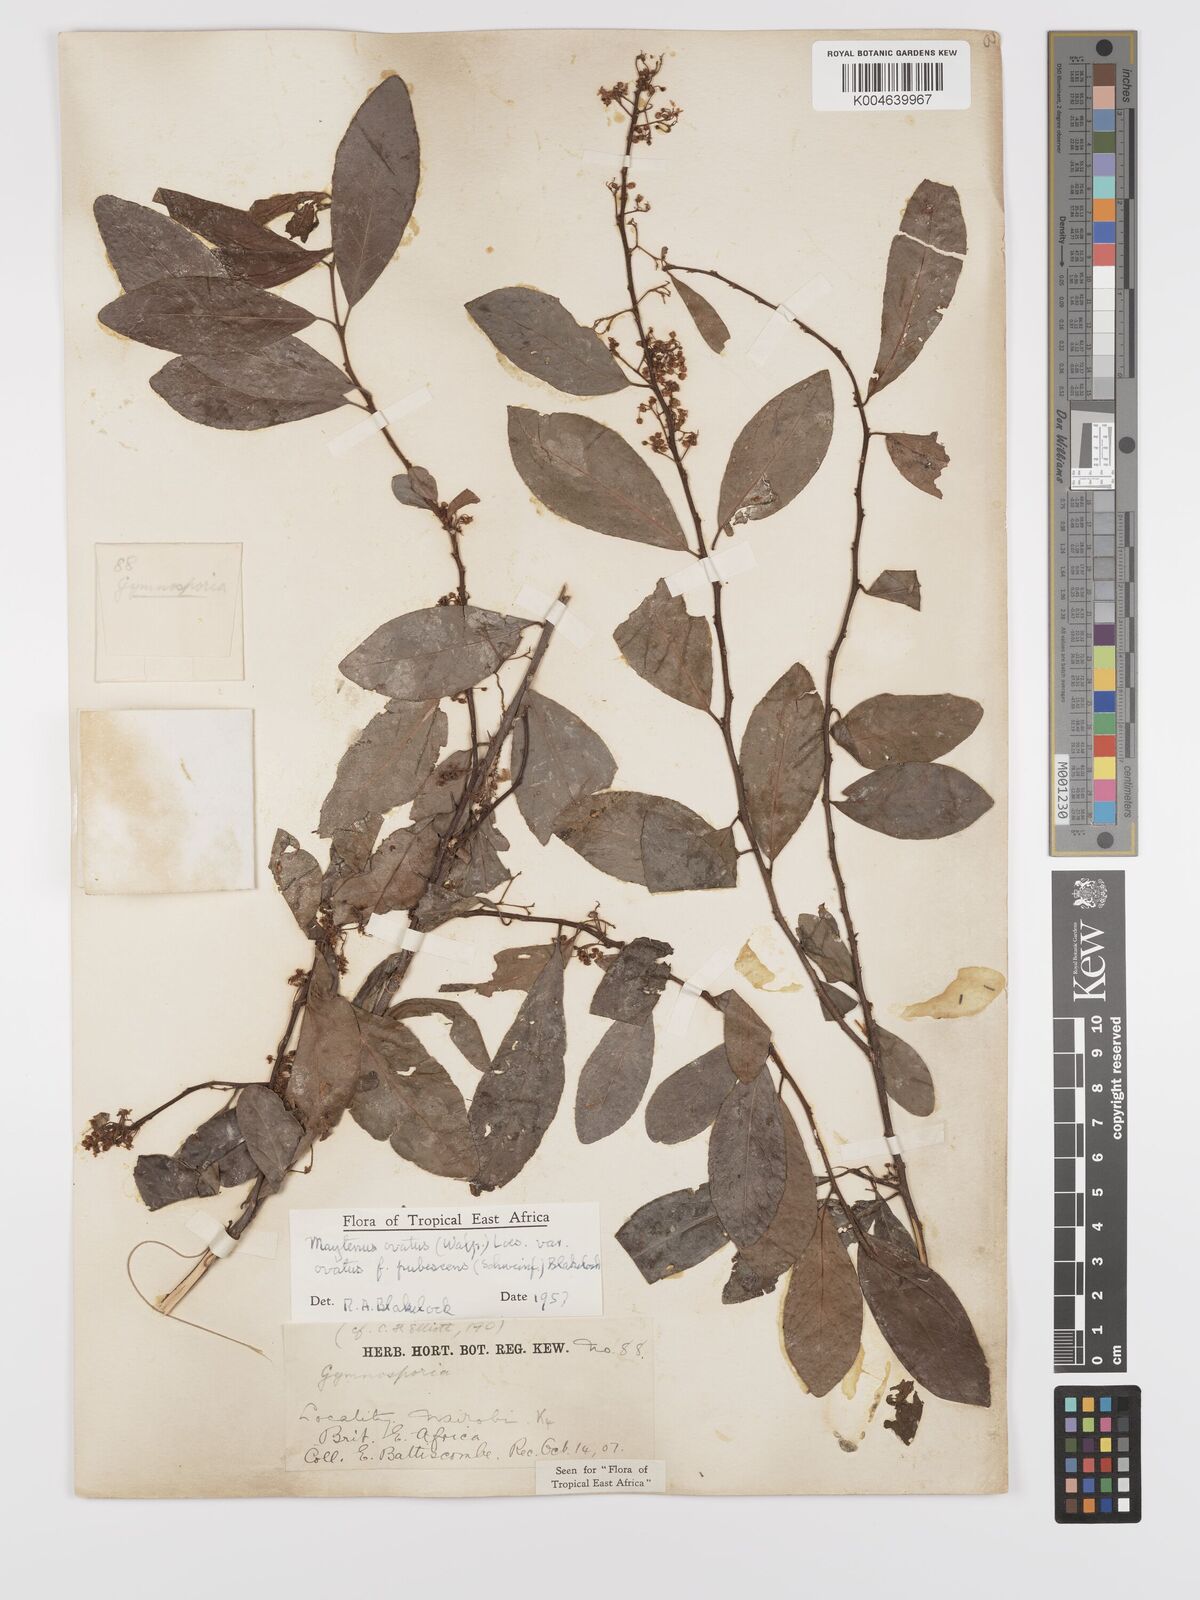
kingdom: Plantae
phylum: Tracheophyta
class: Magnoliopsida
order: Celastrales
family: Celastraceae
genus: Gymnosporia
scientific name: Gymnosporia
